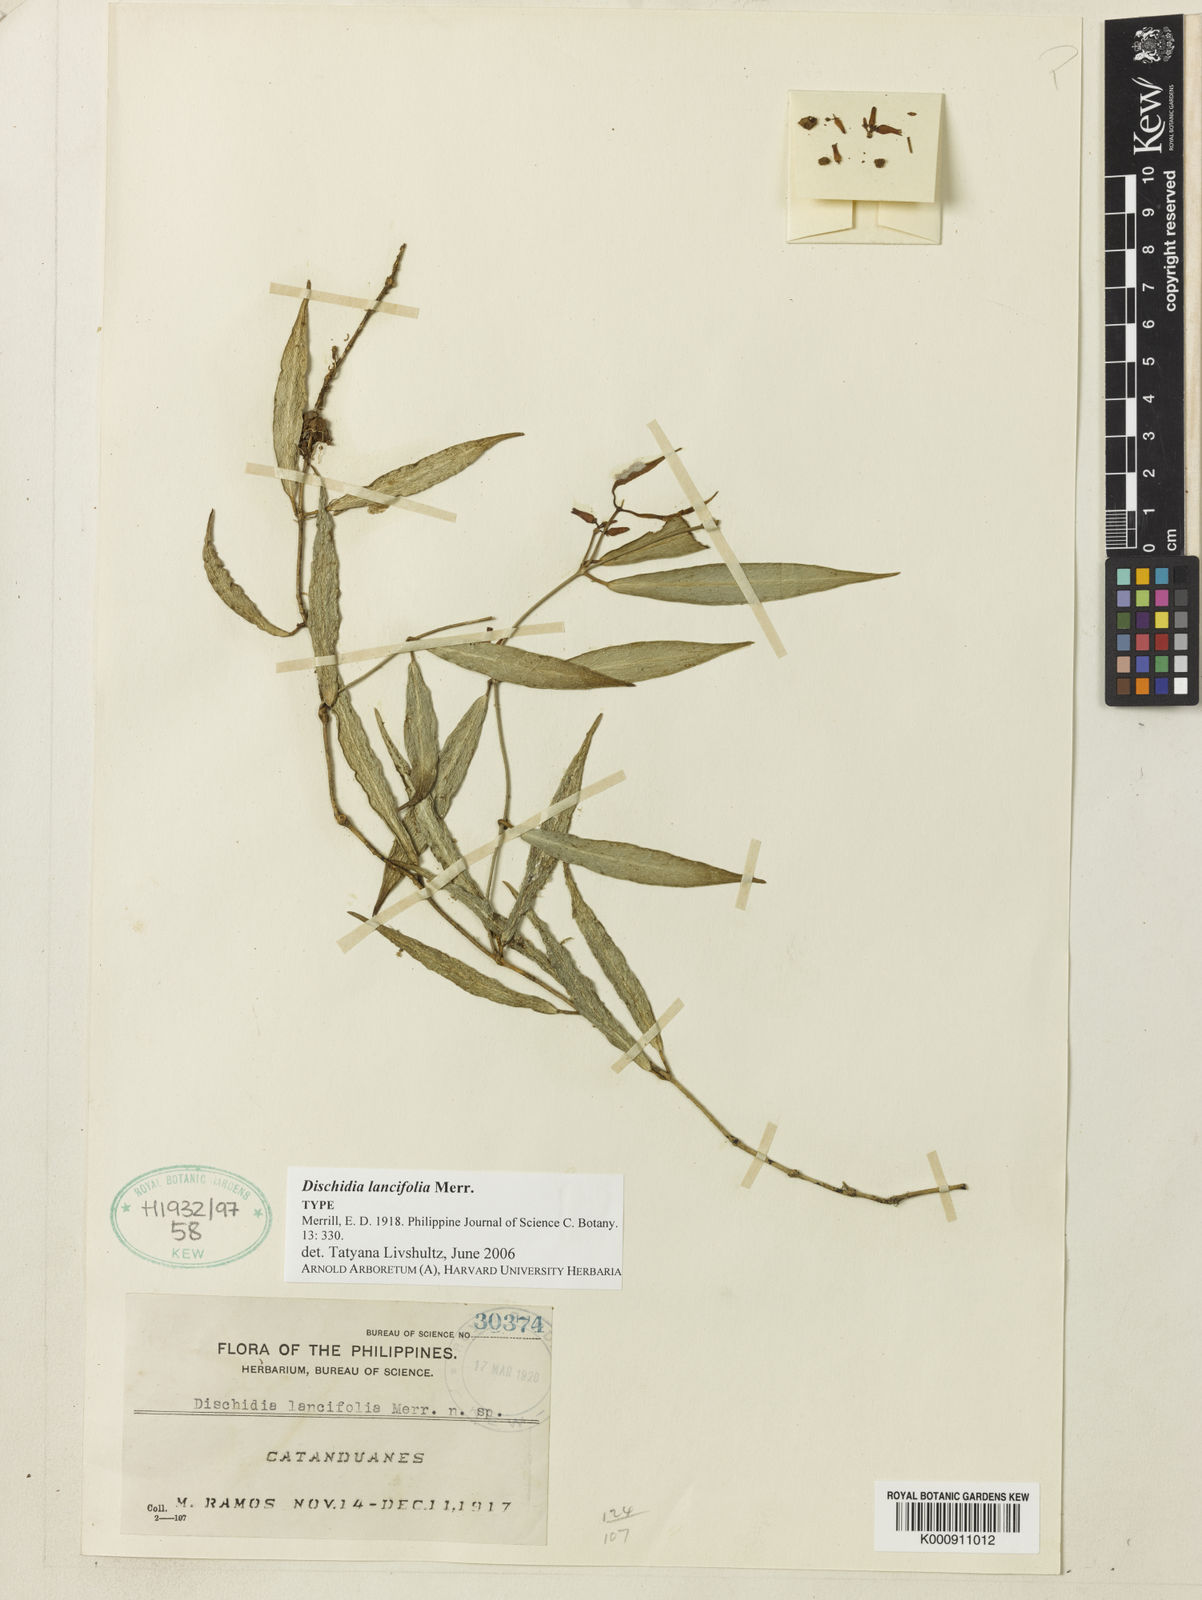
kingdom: Plantae
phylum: Tracheophyta
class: Magnoliopsida
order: Gentianales
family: Apocynaceae
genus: Dischidia
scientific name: Dischidia lancifolia
